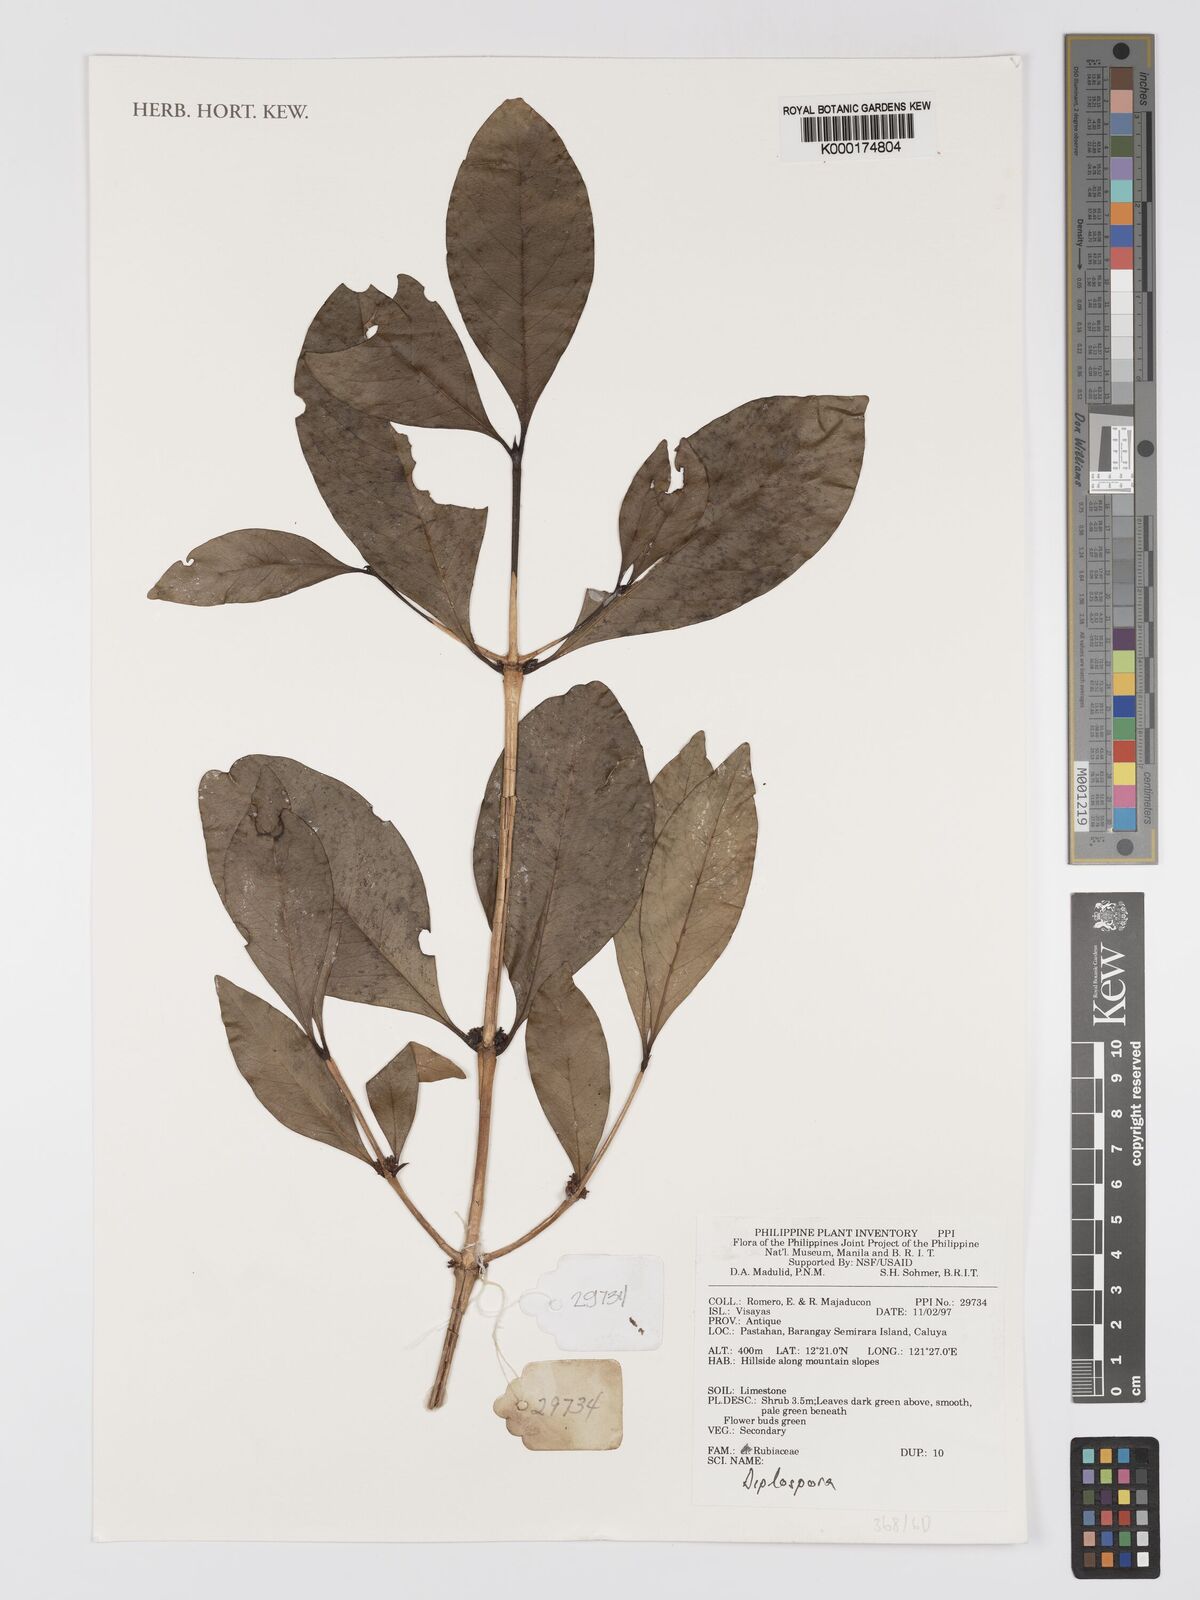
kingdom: Plantae
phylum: Tracheophyta
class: Magnoliopsida
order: Gentianales
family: Rubiaceae
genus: Diplospora
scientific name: Diplospora
